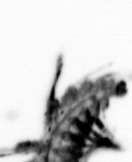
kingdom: Animalia
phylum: Annelida
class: Polychaeta
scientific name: Polychaeta
